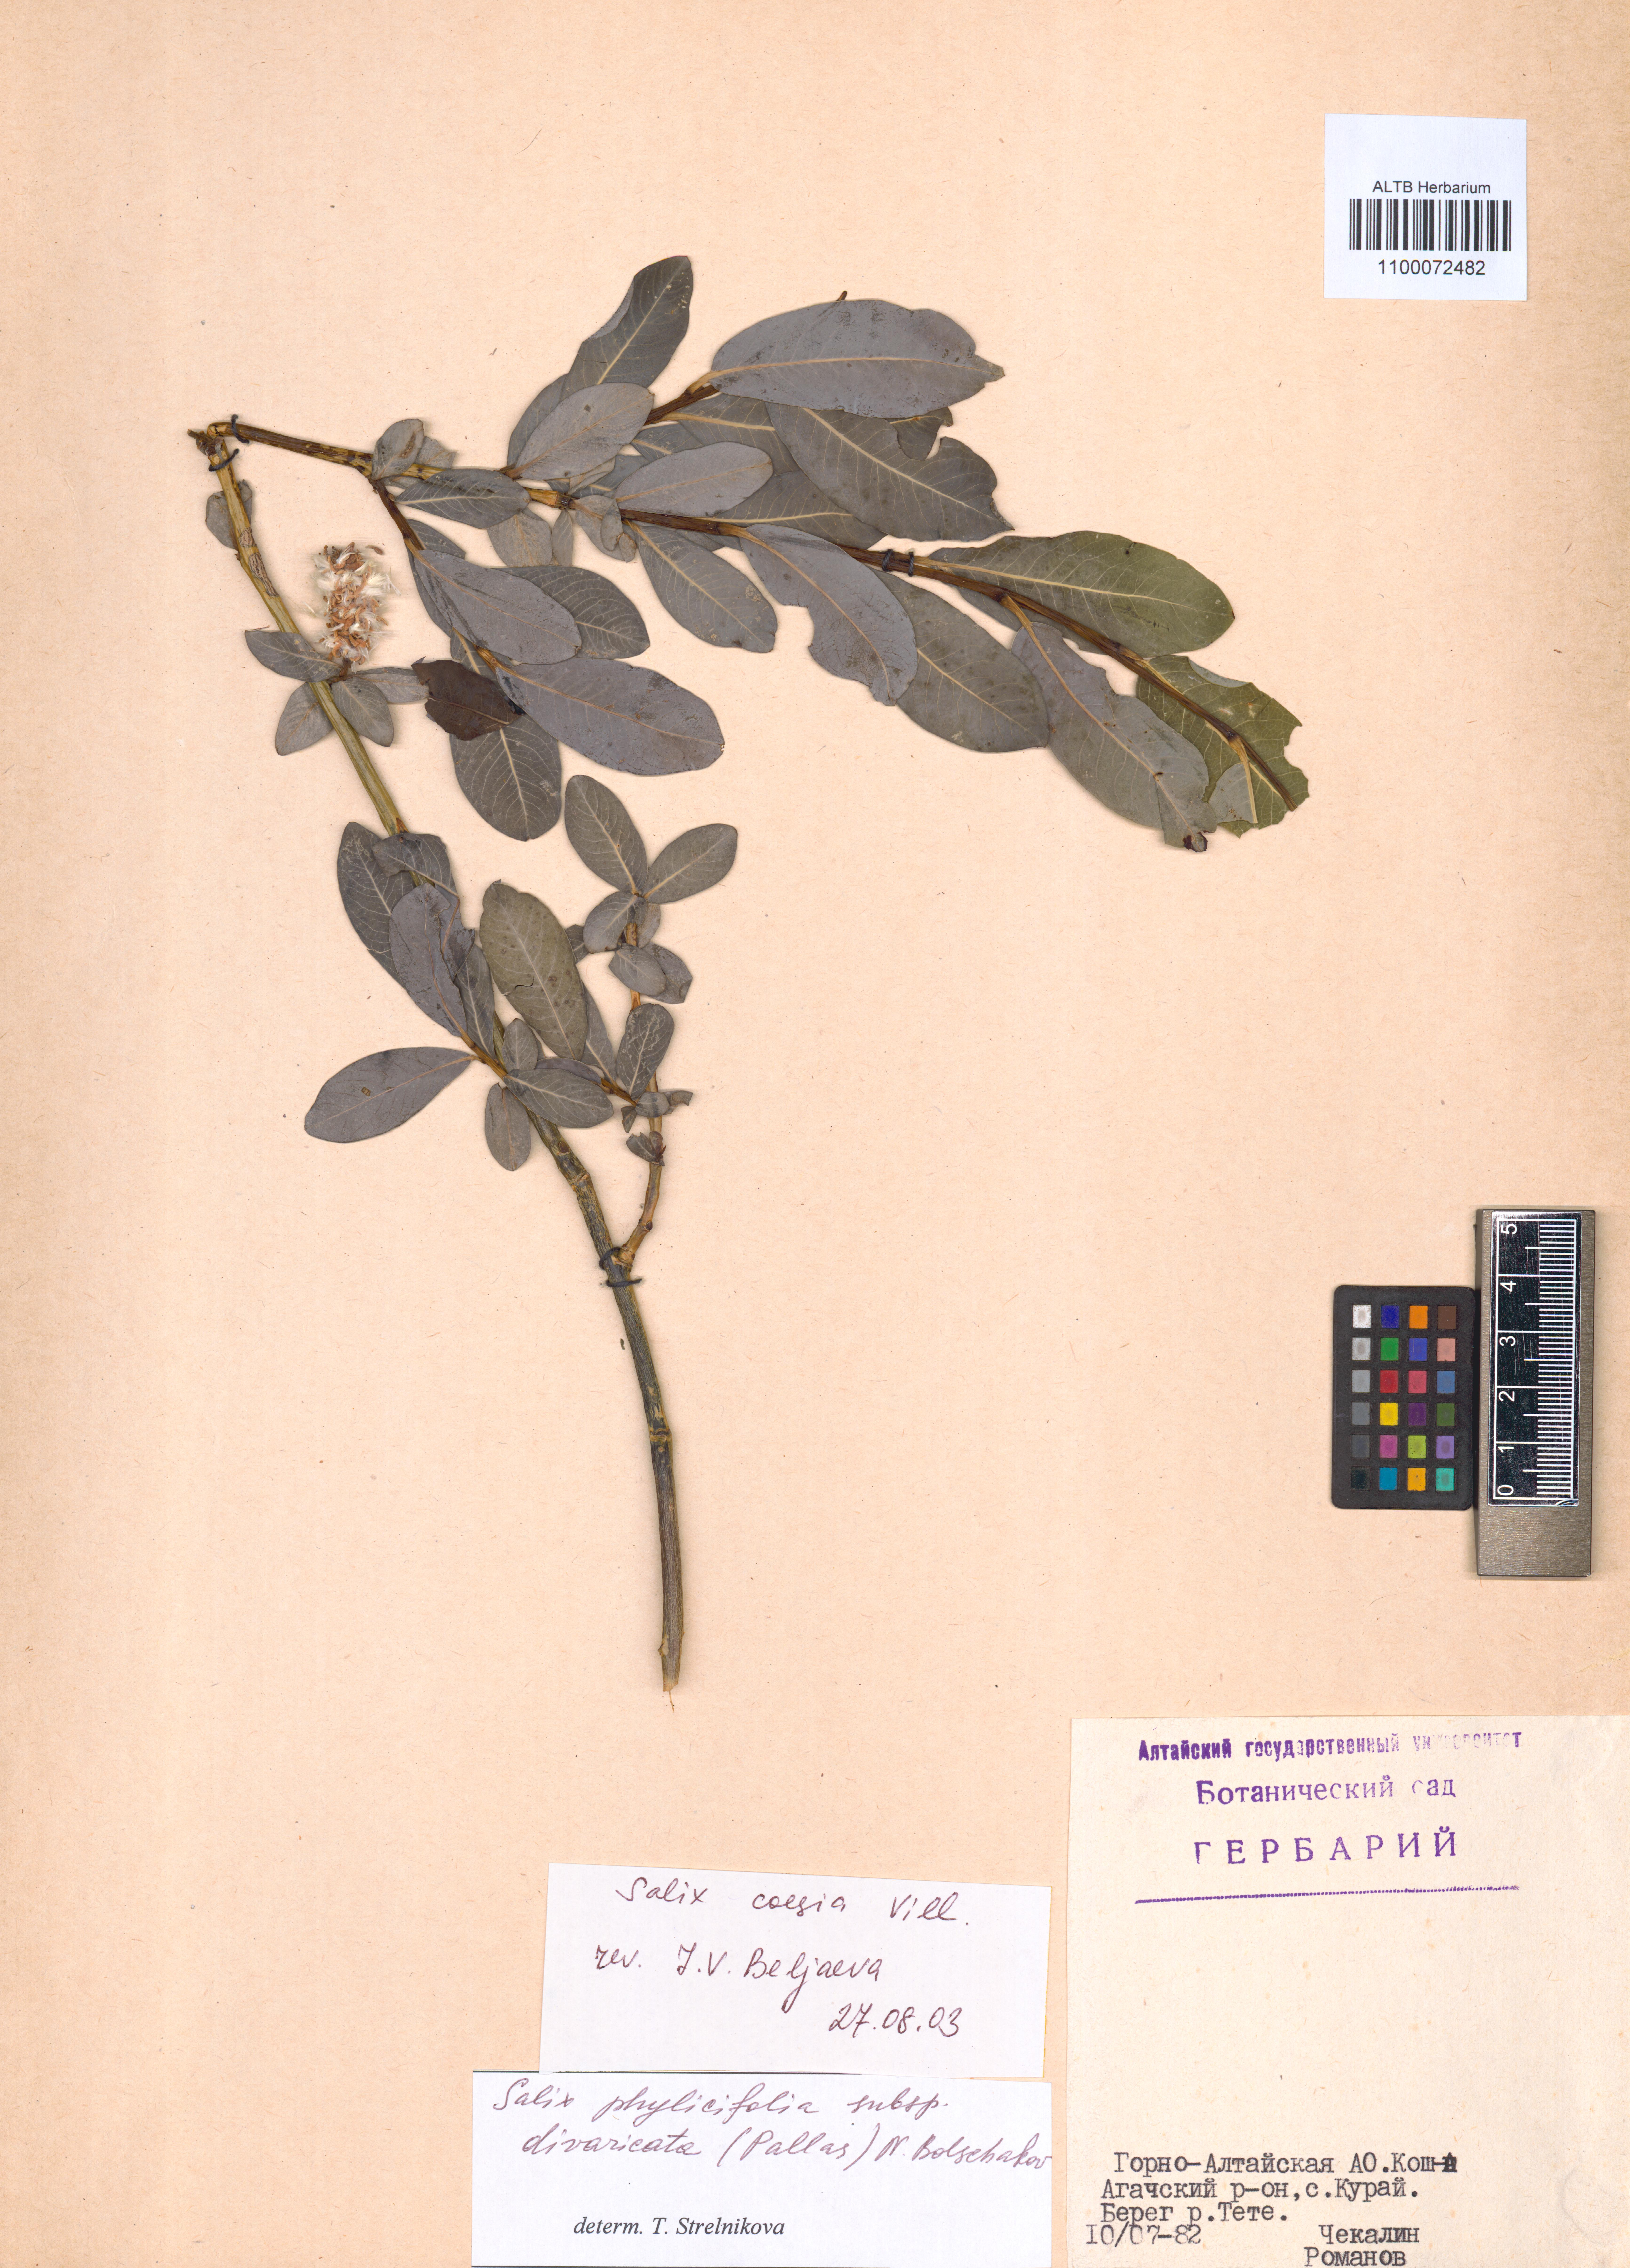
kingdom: Plantae
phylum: Tracheophyta
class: Magnoliopsida
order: Malpighiales
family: Salicaceae
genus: Salix
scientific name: Salix caesia
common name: Blue willow
